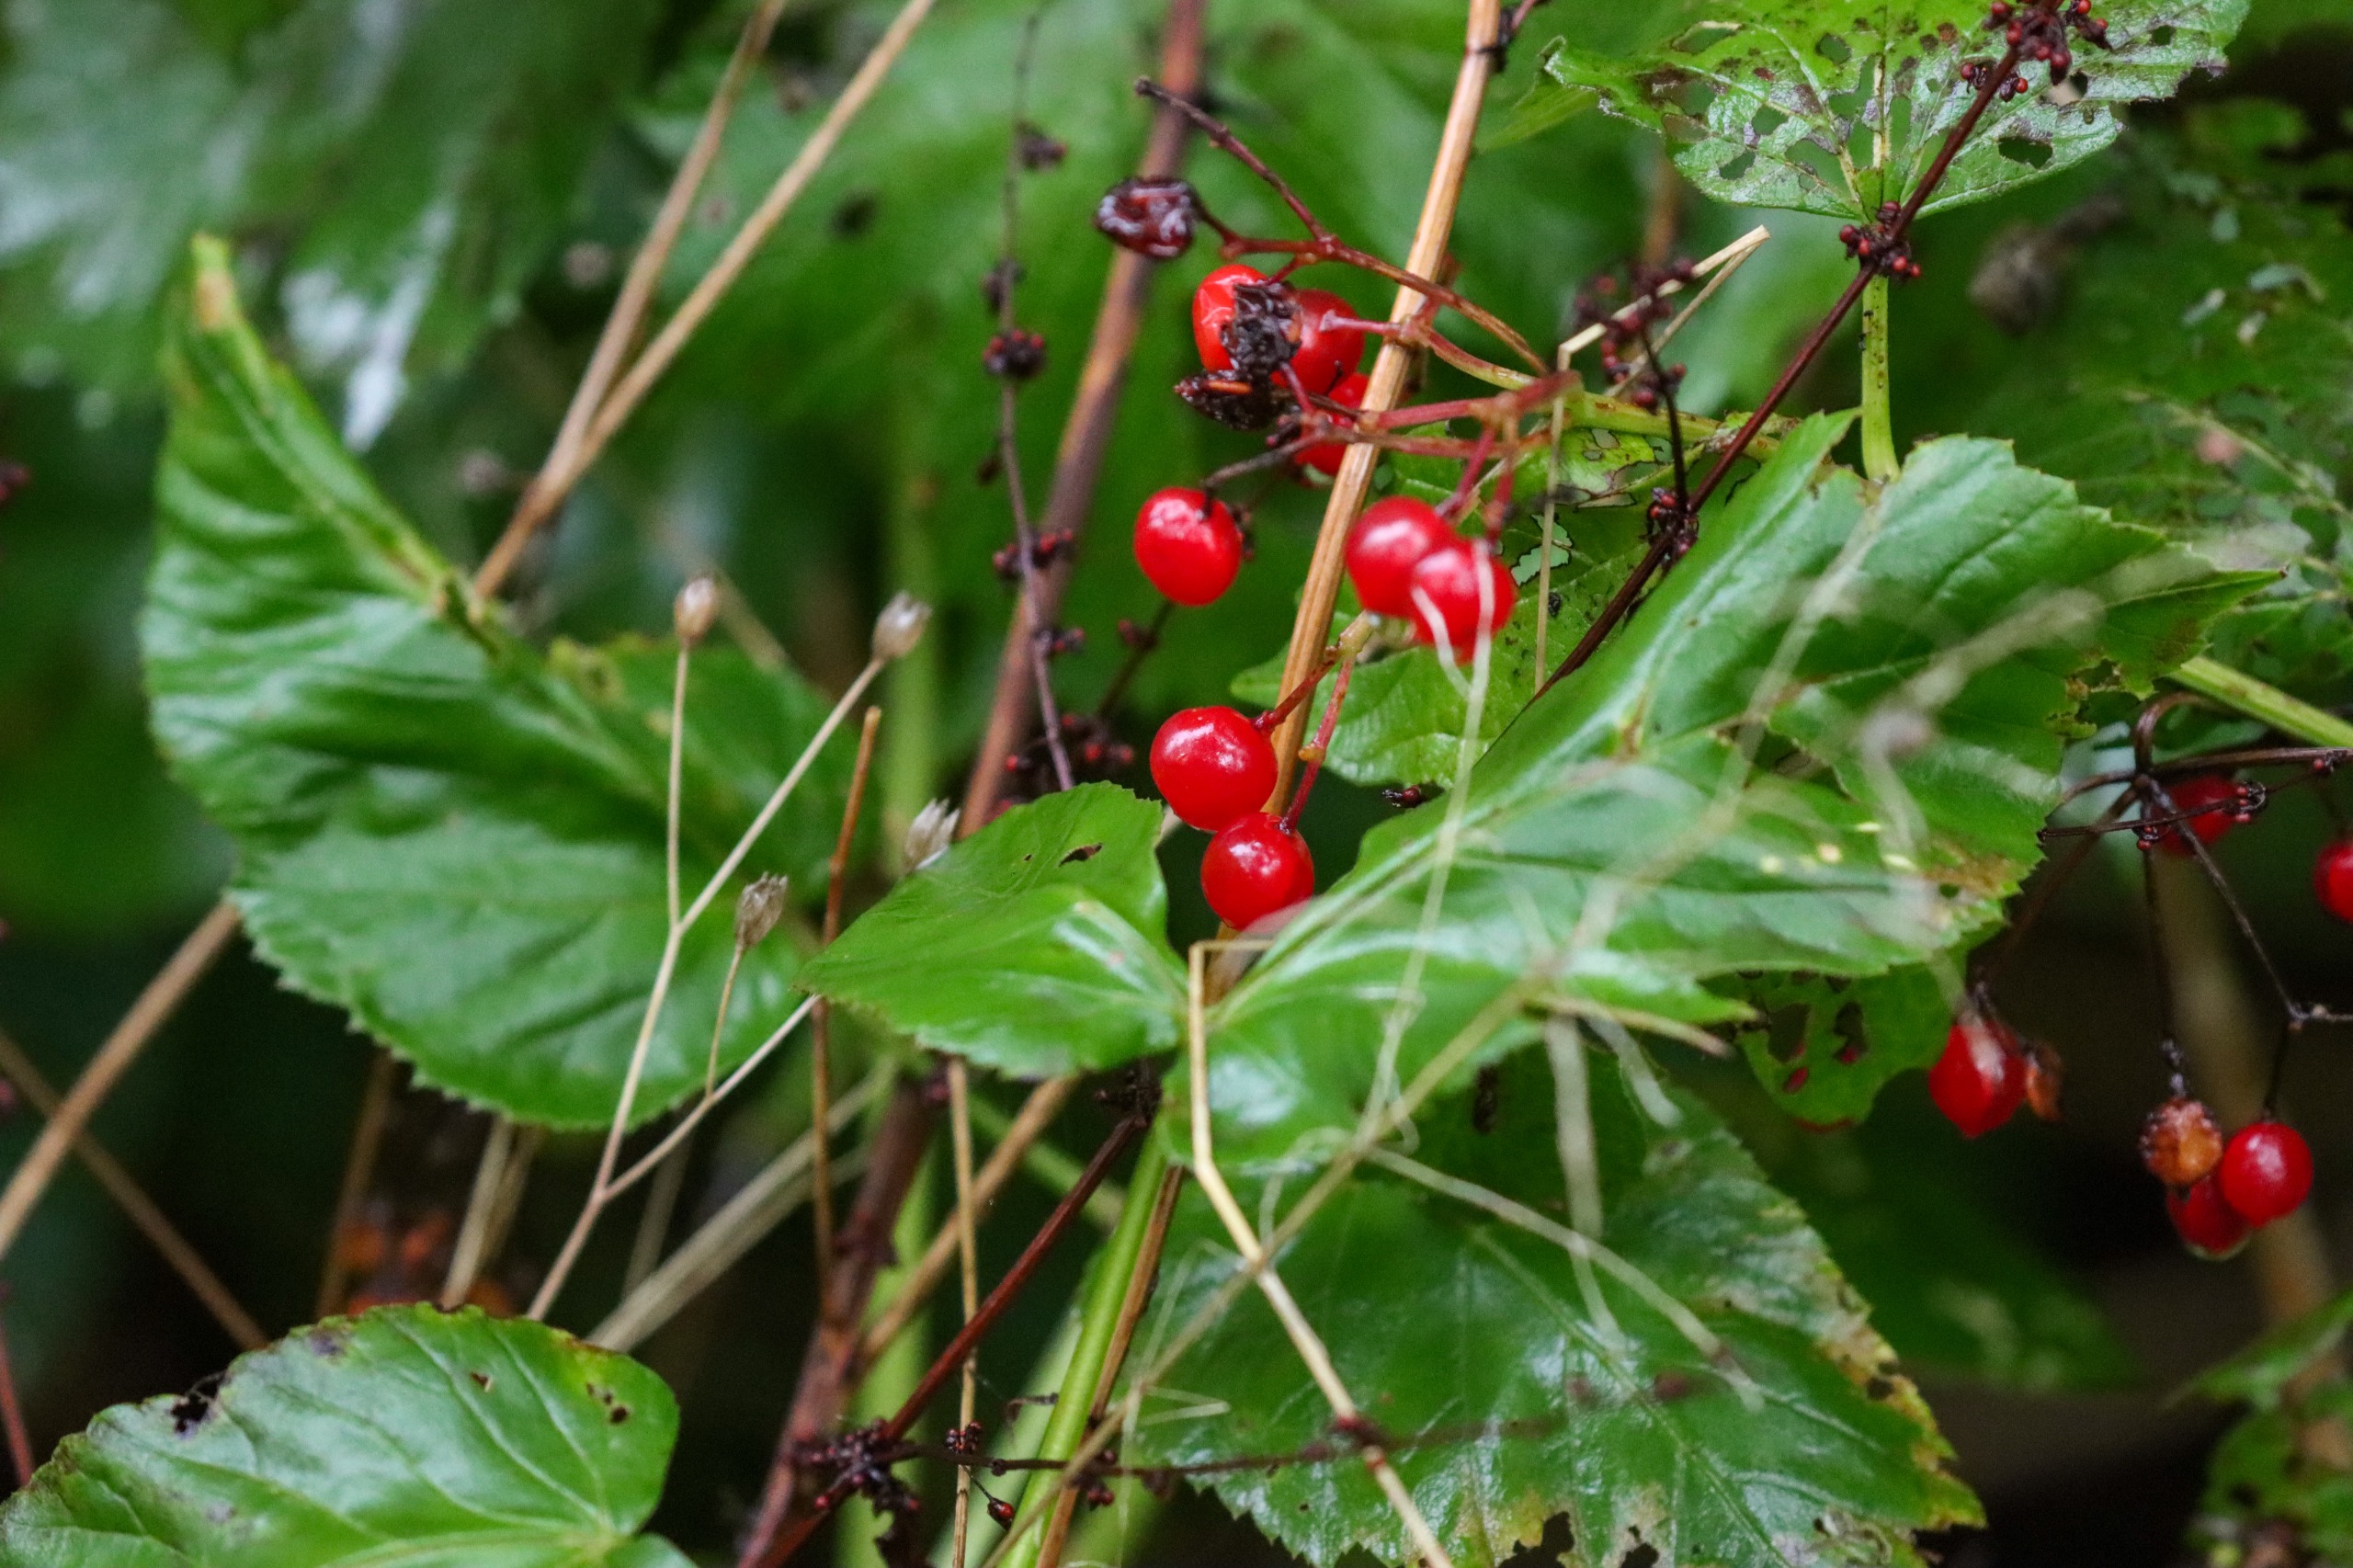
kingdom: Plantae
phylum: Tracheophyta
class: Magnoliopsida
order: Dipsacales
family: Viburnaceae
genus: Viburnum
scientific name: Viburnum opulus
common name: Kvalkved
